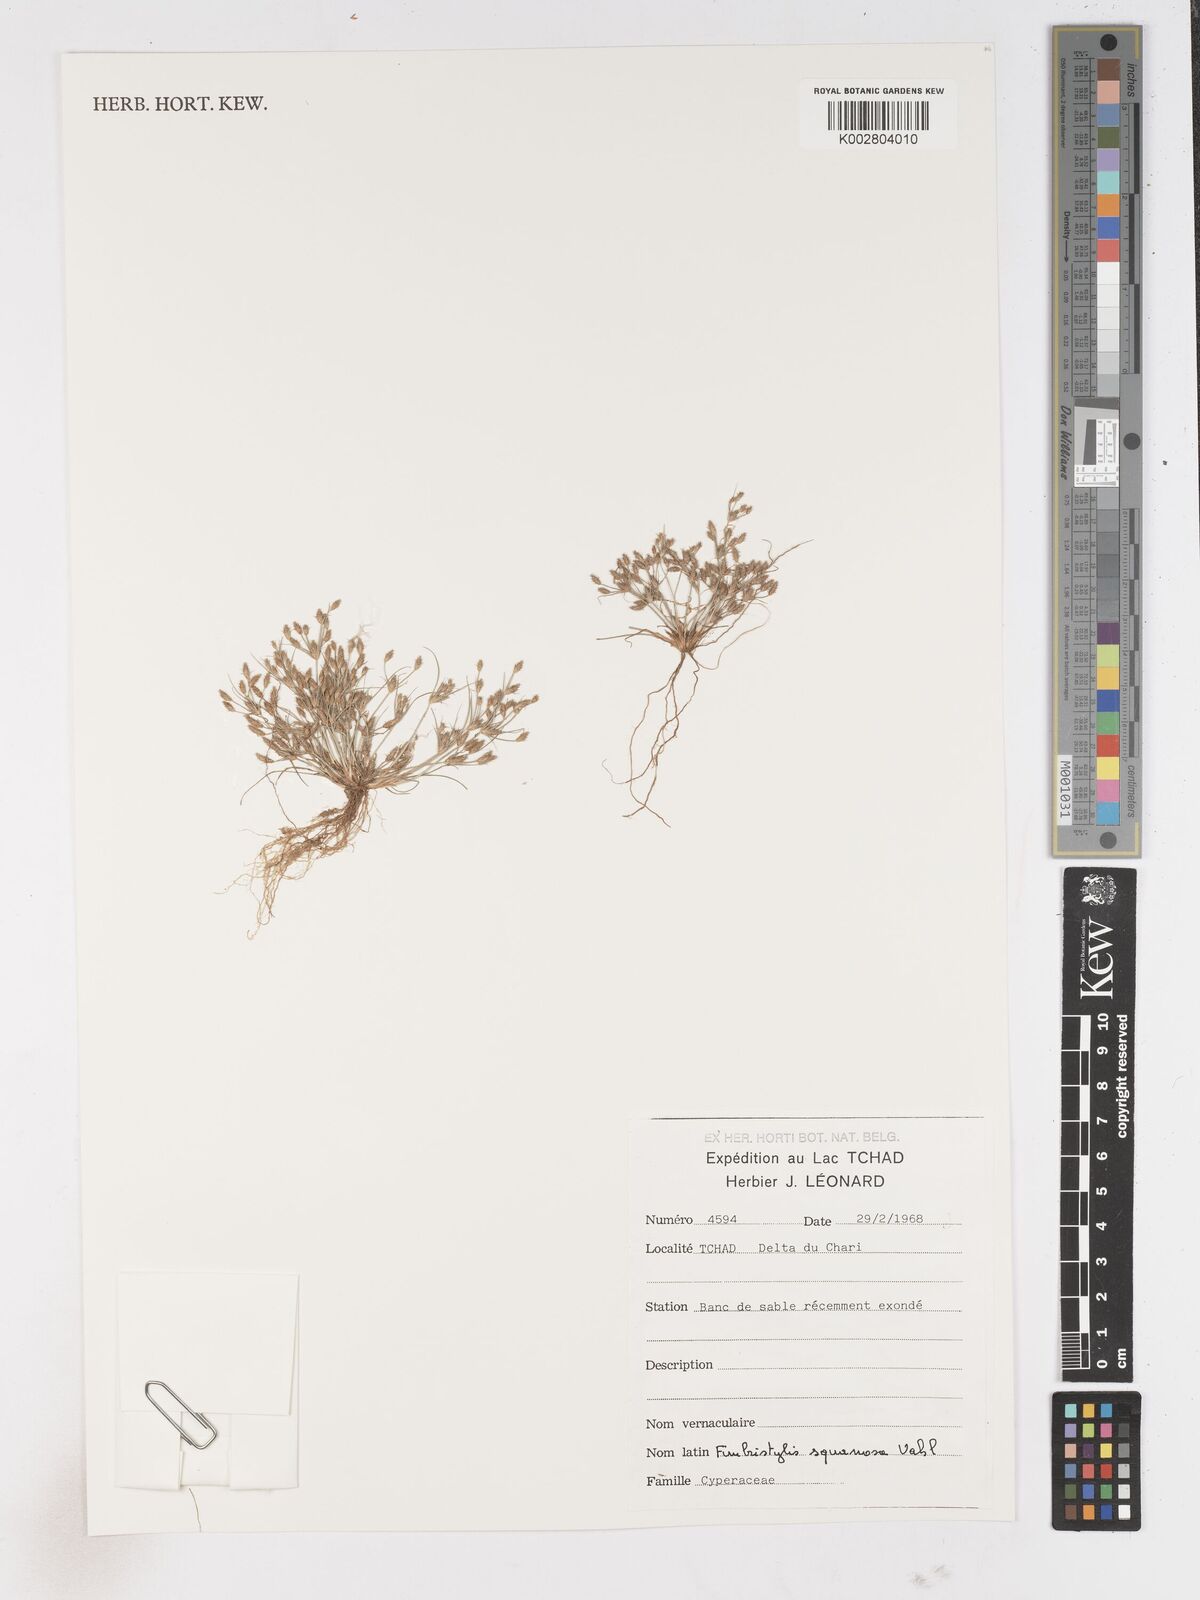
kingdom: Plantae
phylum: Tracheophyta
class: Liliopsida
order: Poales
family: Cyperaceae
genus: Fimbristylis
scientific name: Fimbristylis squarrosa
